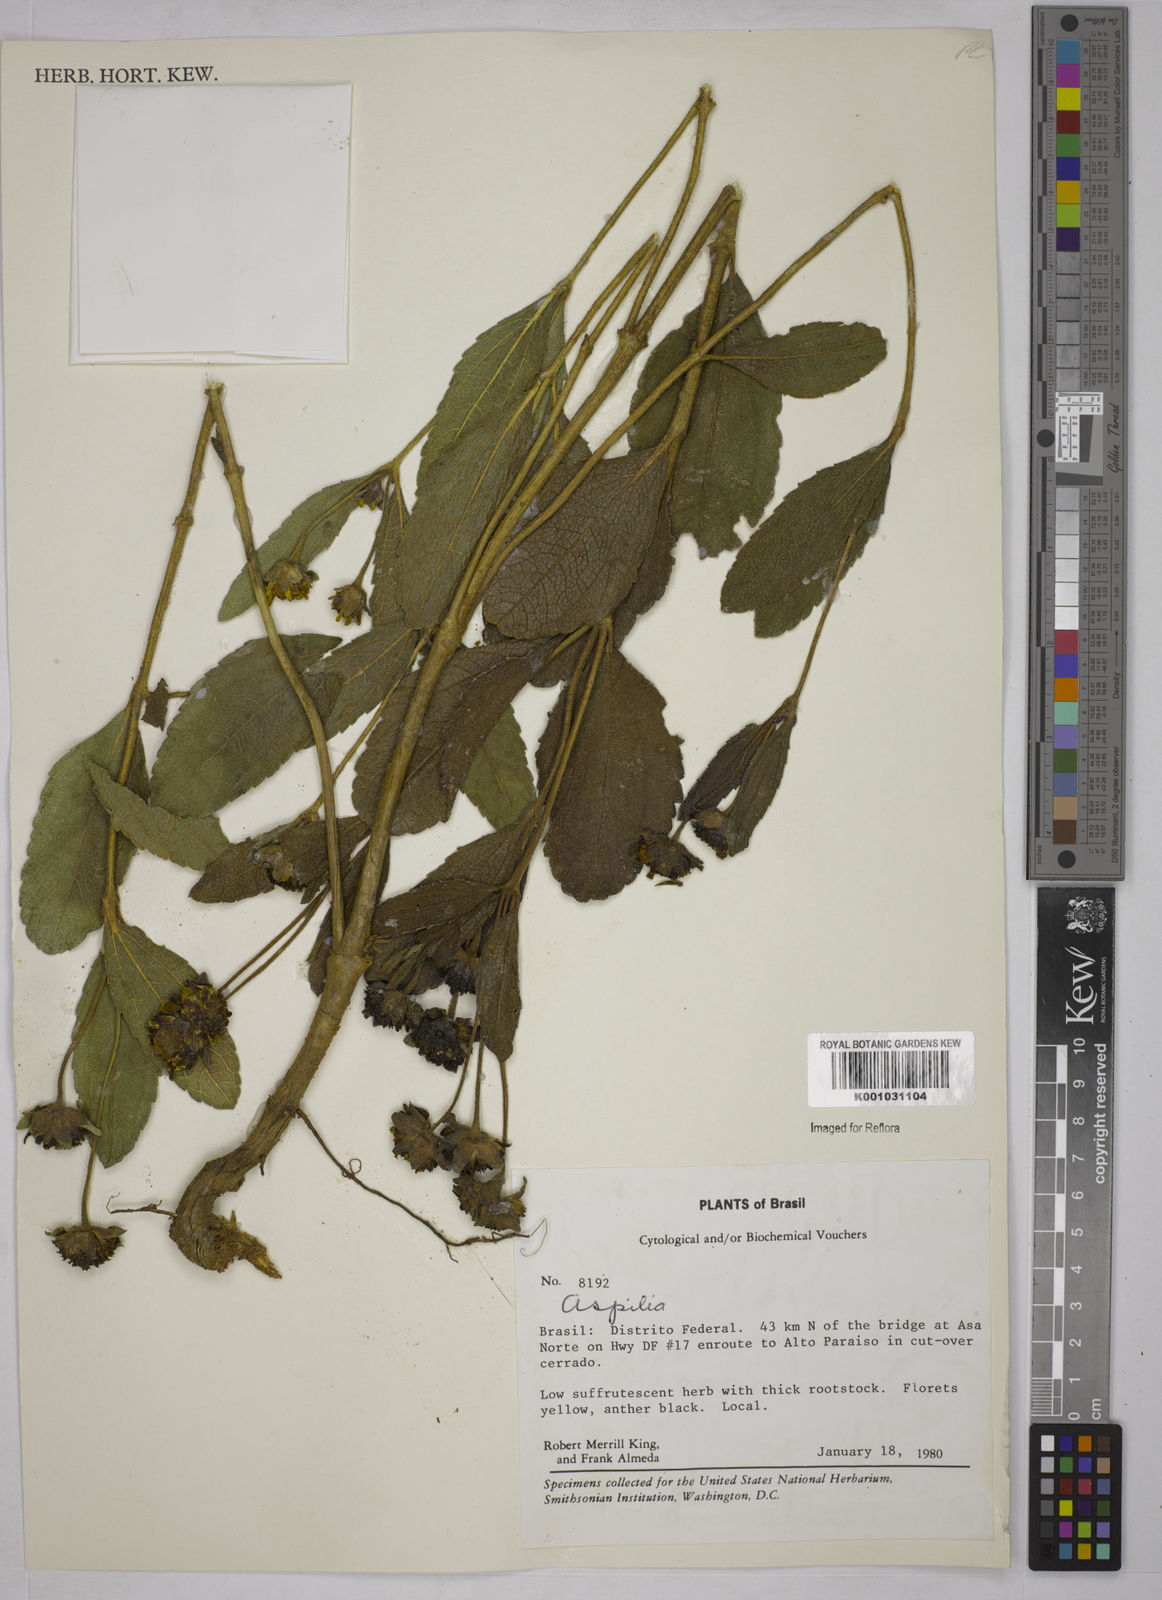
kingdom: Plantae
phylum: Tracheophyta
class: Magnoliopsida
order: Asterales
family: Asteraceae
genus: Aspilia
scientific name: Aspilia
